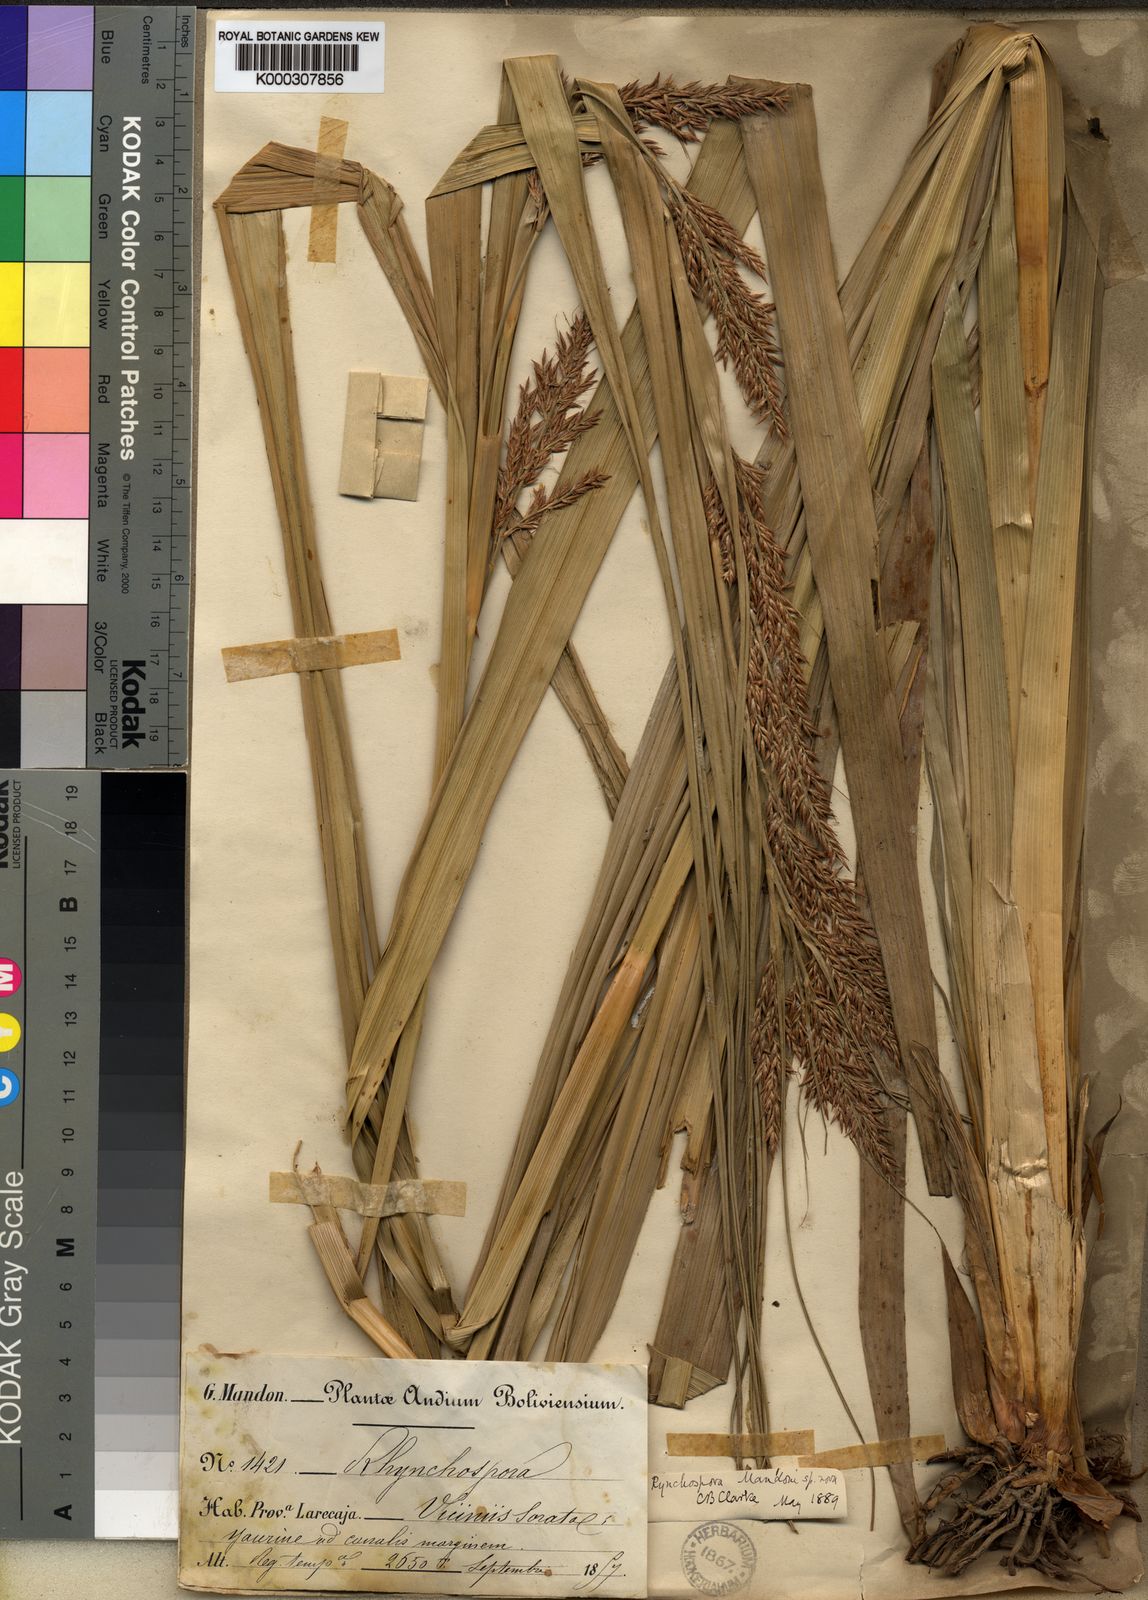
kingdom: Plantae
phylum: Tracheophyta
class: Liliopsida
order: Poales
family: Cyperaceae
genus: Rhynchospora
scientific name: Rhynchospora mandonii
